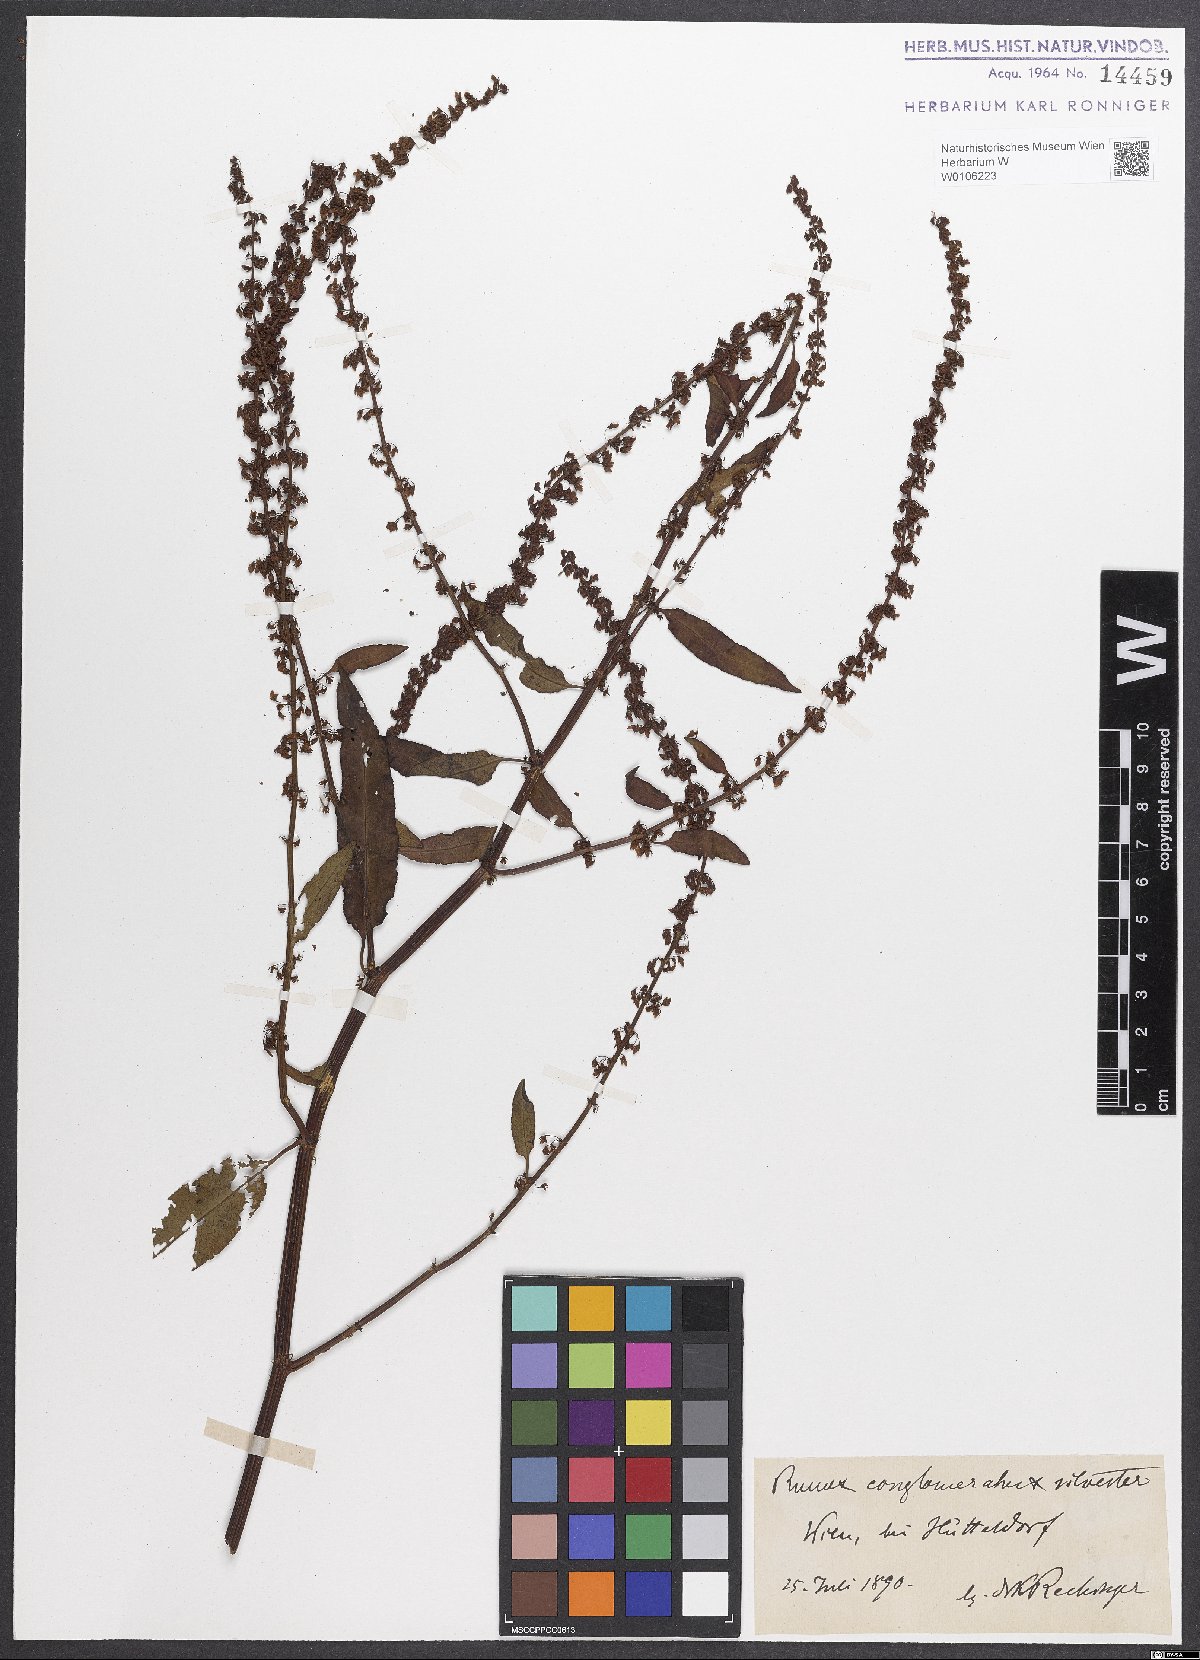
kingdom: Plantae
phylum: Tracheophyta
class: Magnoliopsida
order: Caryophyllales
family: Polygonaceae
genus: Rumex
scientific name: Rumex
